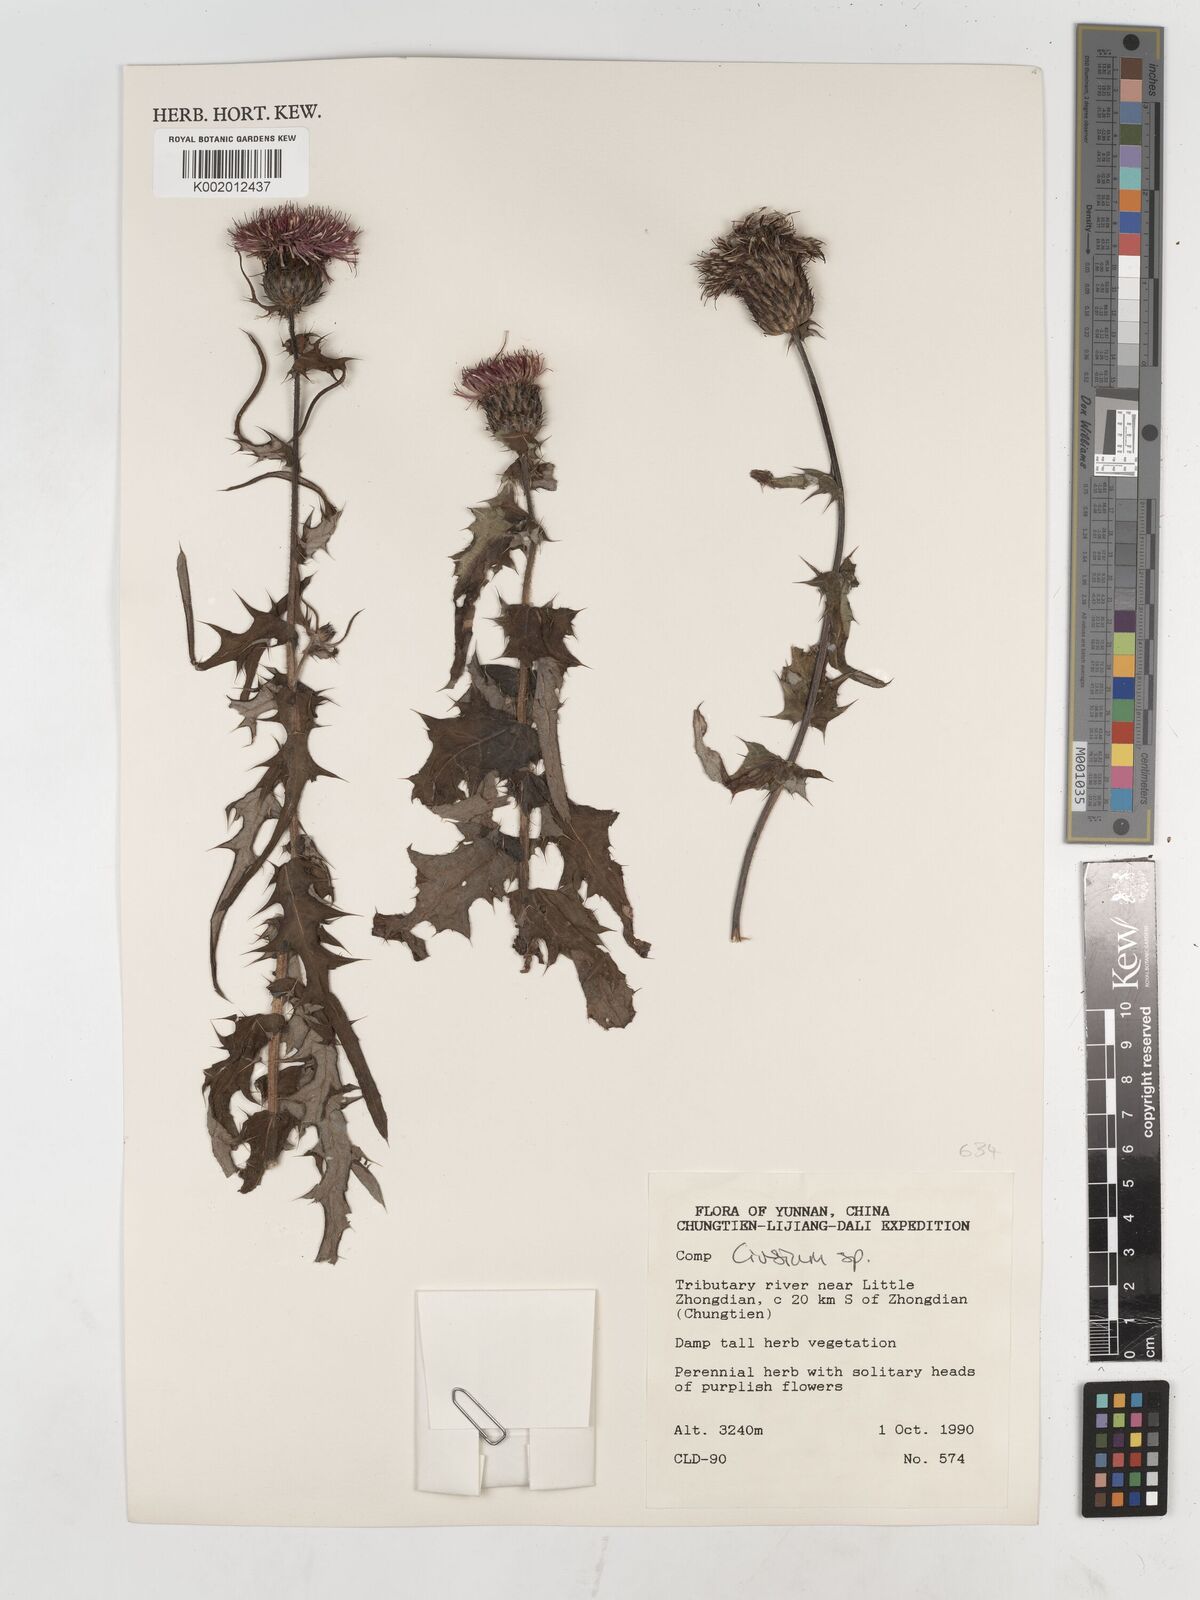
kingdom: Plantae
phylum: Tracheophyta
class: Magnoliopsida
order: Asterales
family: Asteraceae
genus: Cirsium
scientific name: Cirsium
